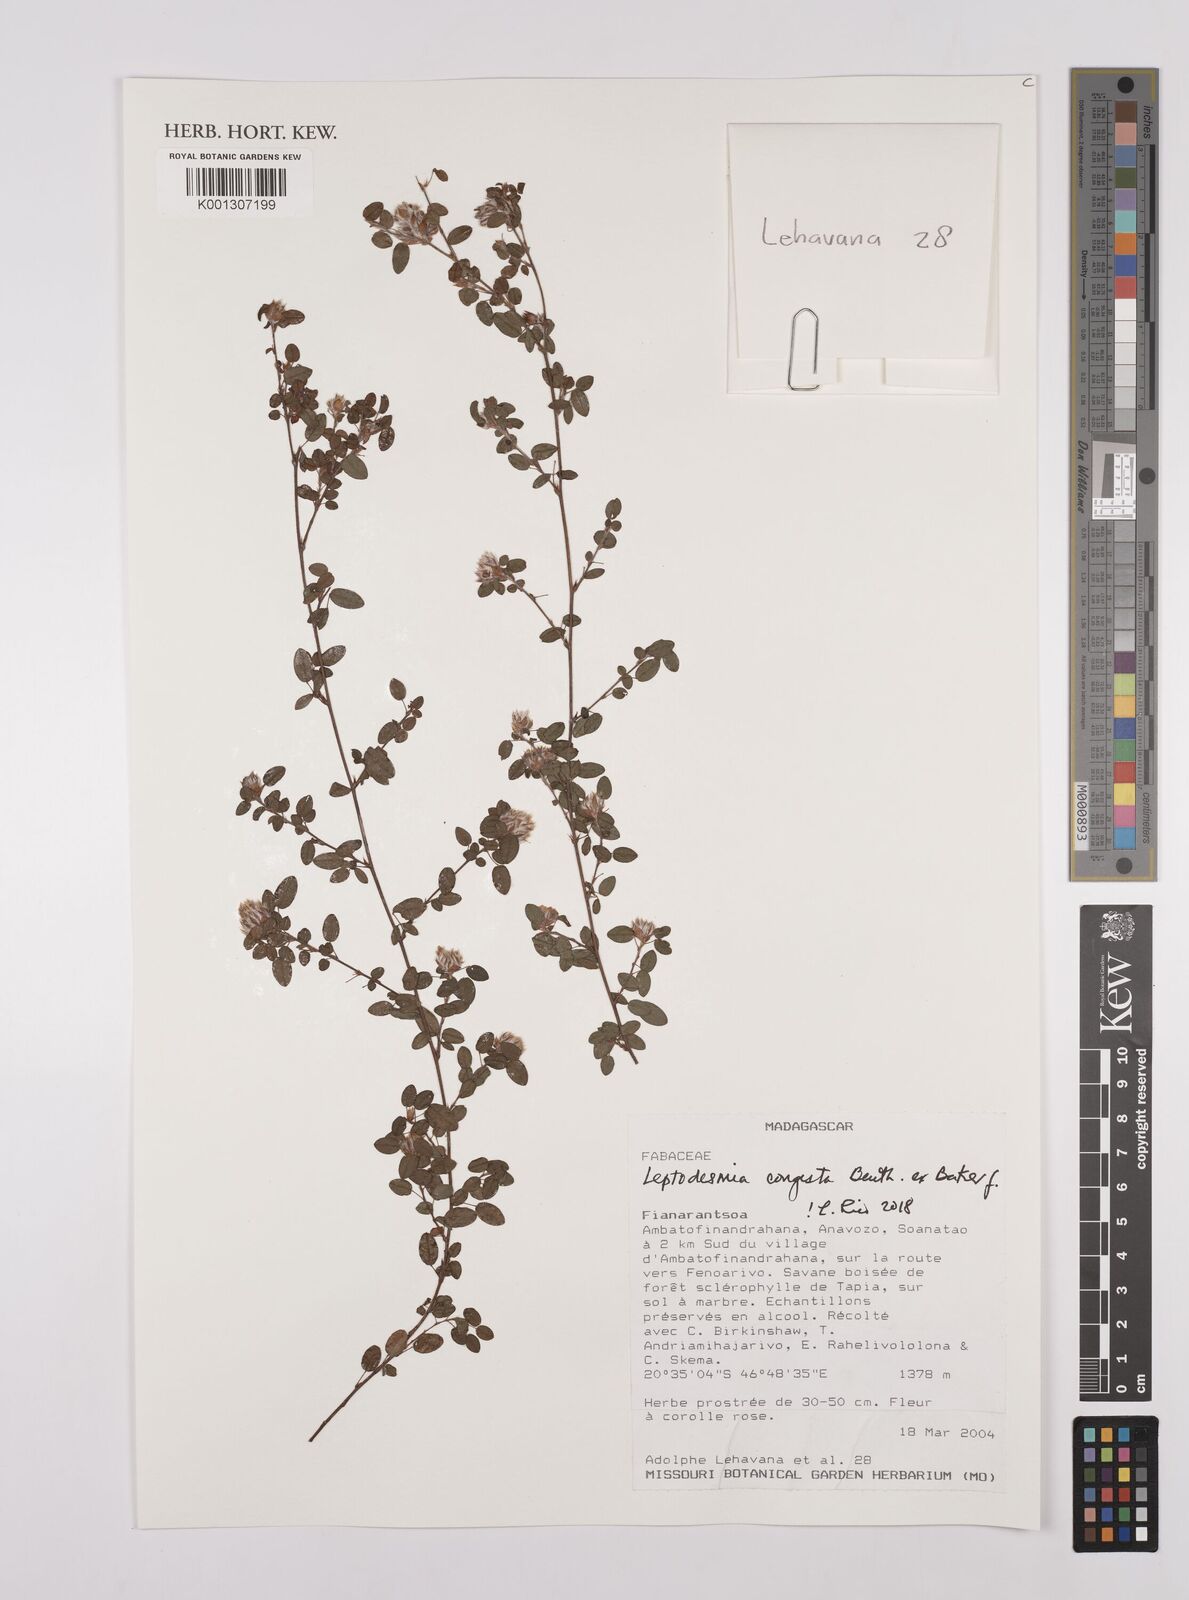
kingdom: Plantae
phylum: Tracheophyta
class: Magnoliopsida
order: Fabales
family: Fabaceae
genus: Leptodesmia
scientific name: Leptodesmia
